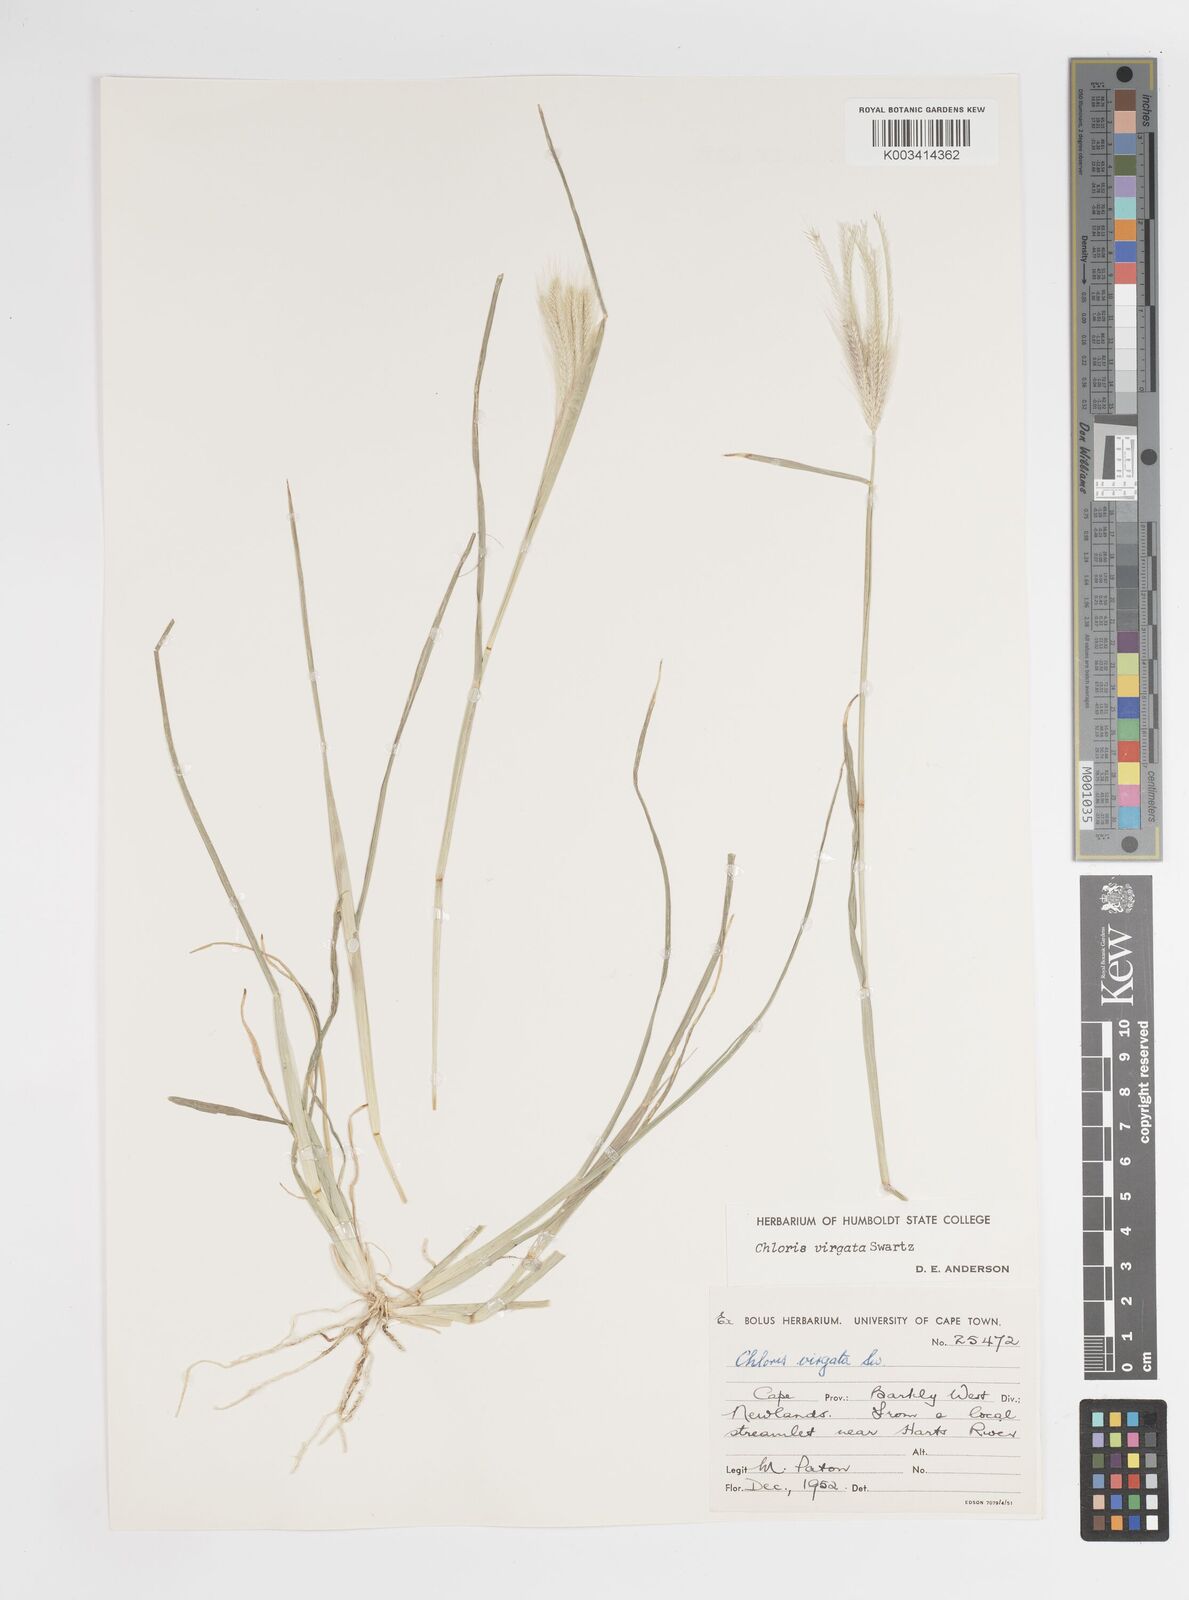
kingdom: Plantae
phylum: Tracheophyta
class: Liliopsida
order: Poales
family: Poaceae
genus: Chloris
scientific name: Chloris virgata
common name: Feathery rhodes-grass
